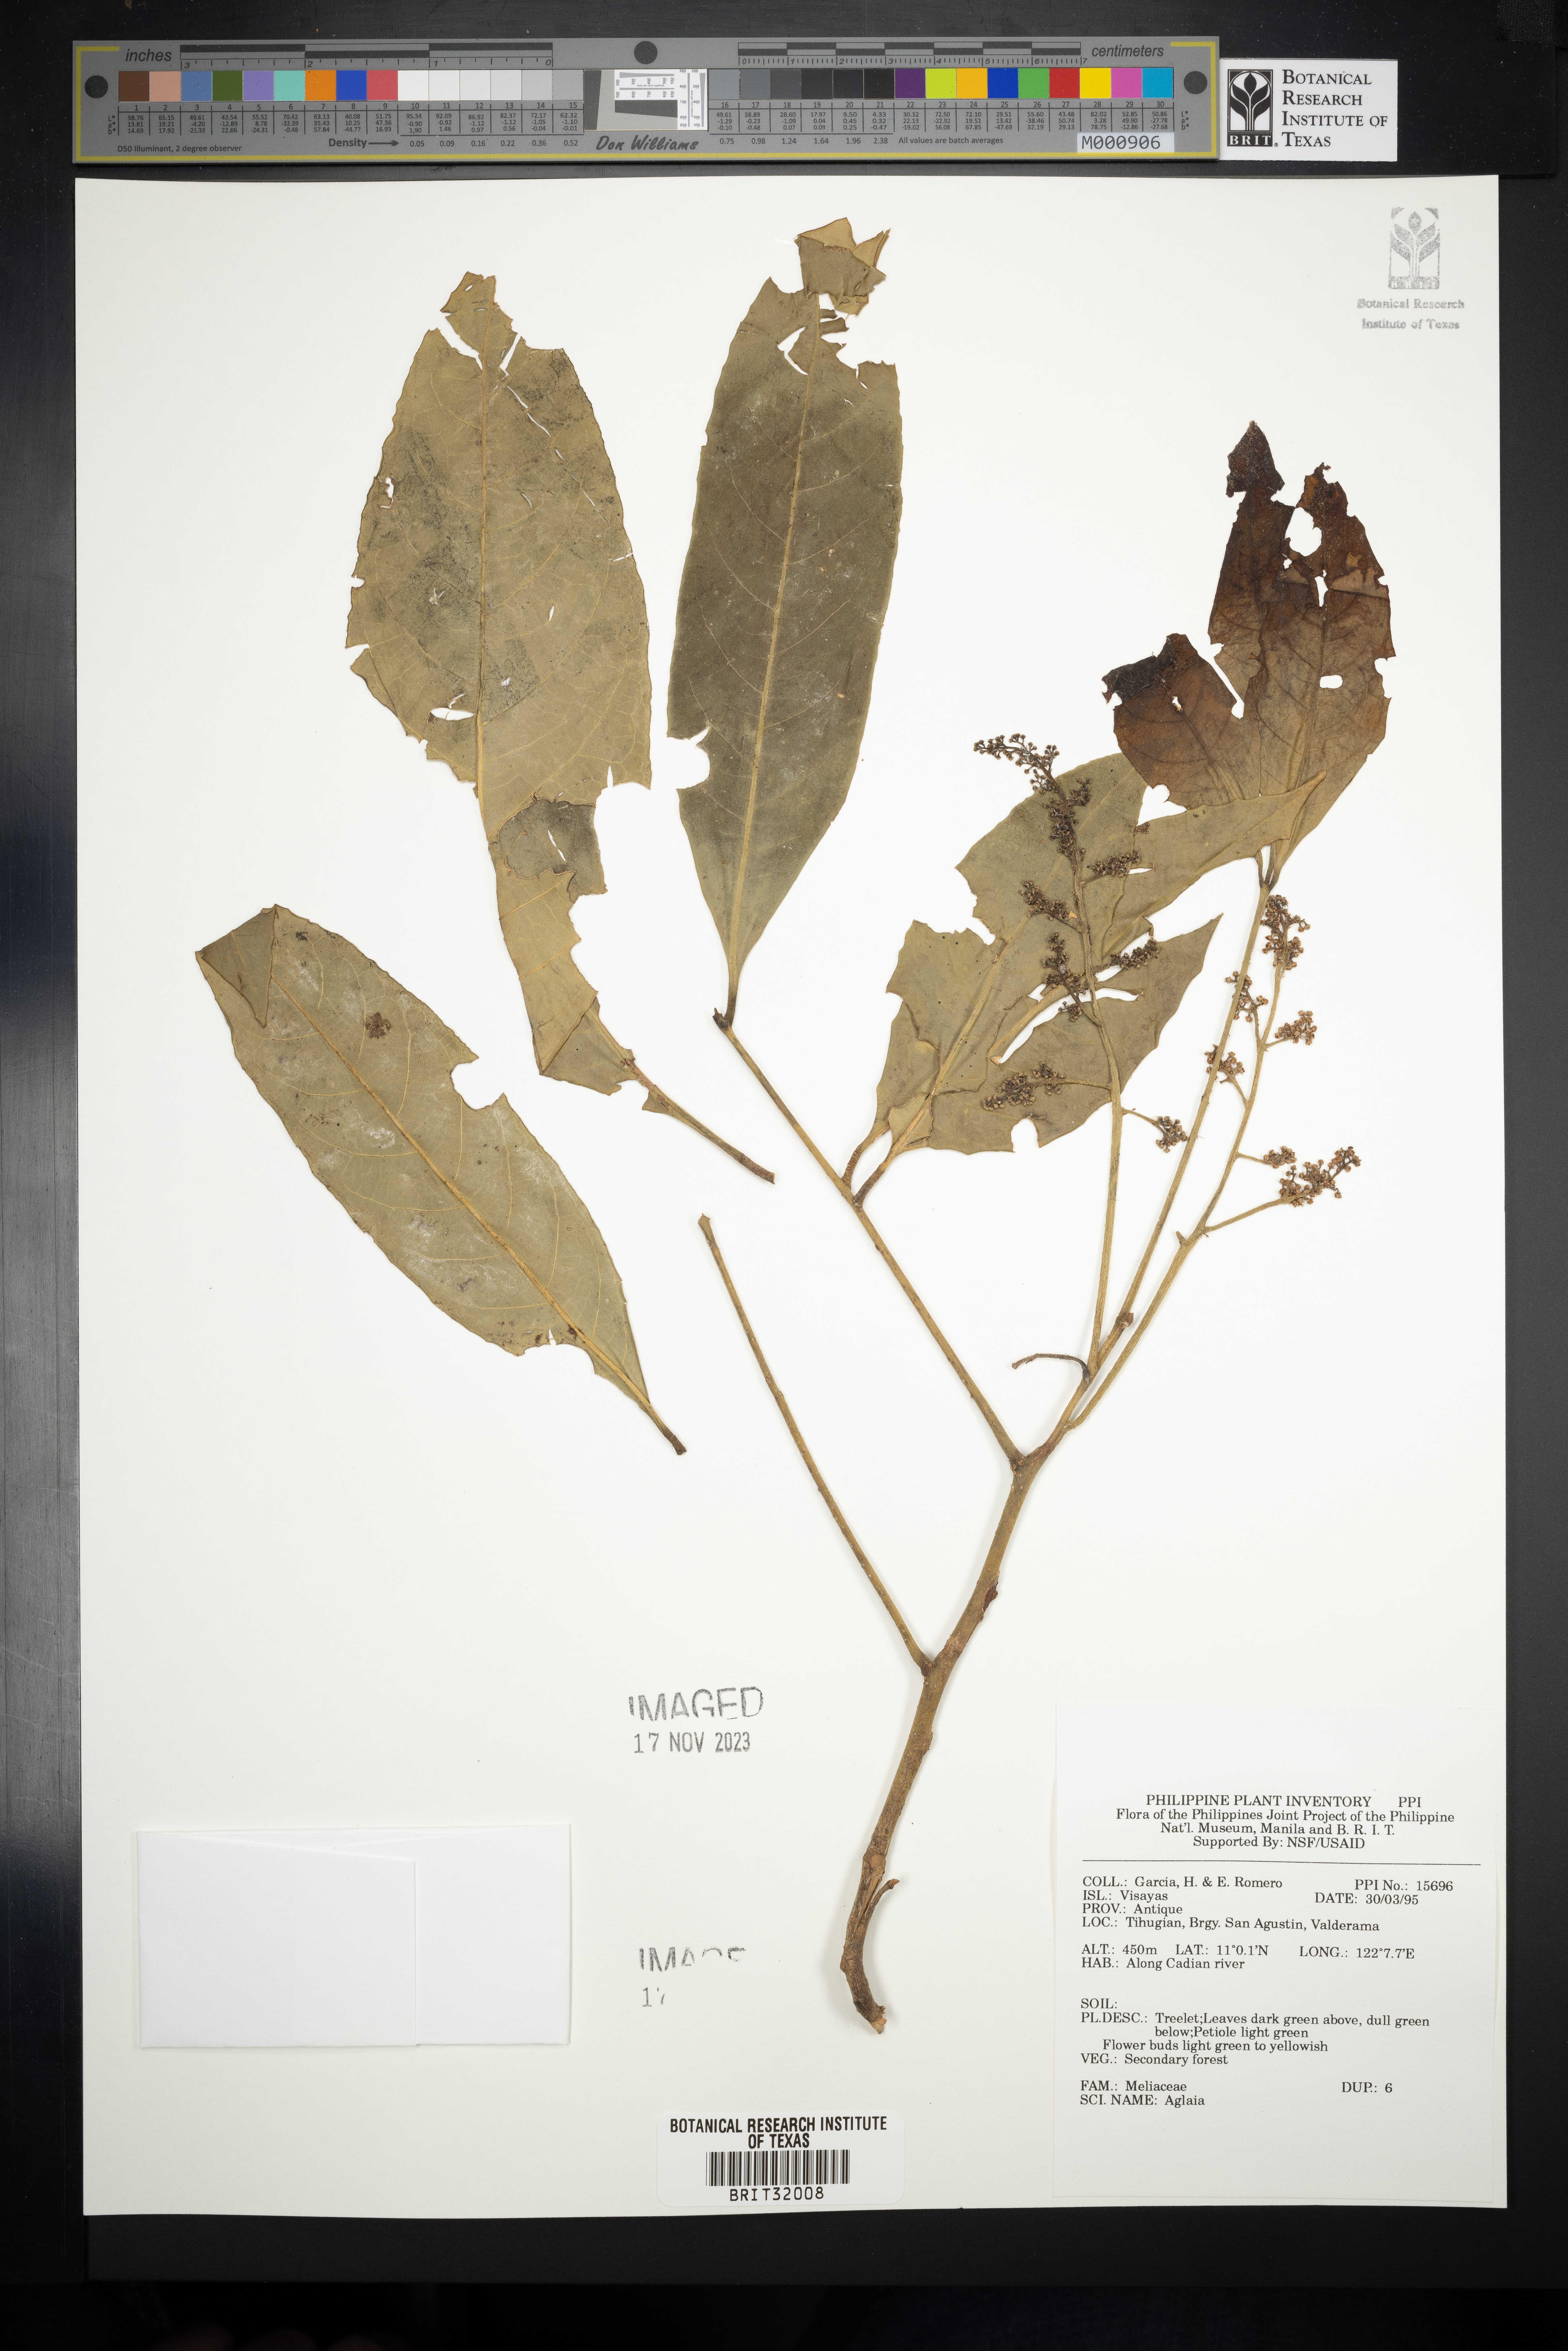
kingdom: Plantae
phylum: Tracheophyta
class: Magnoliopsida
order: Sapindales
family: Meliaceae
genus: Aglaia
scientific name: Aglaia
